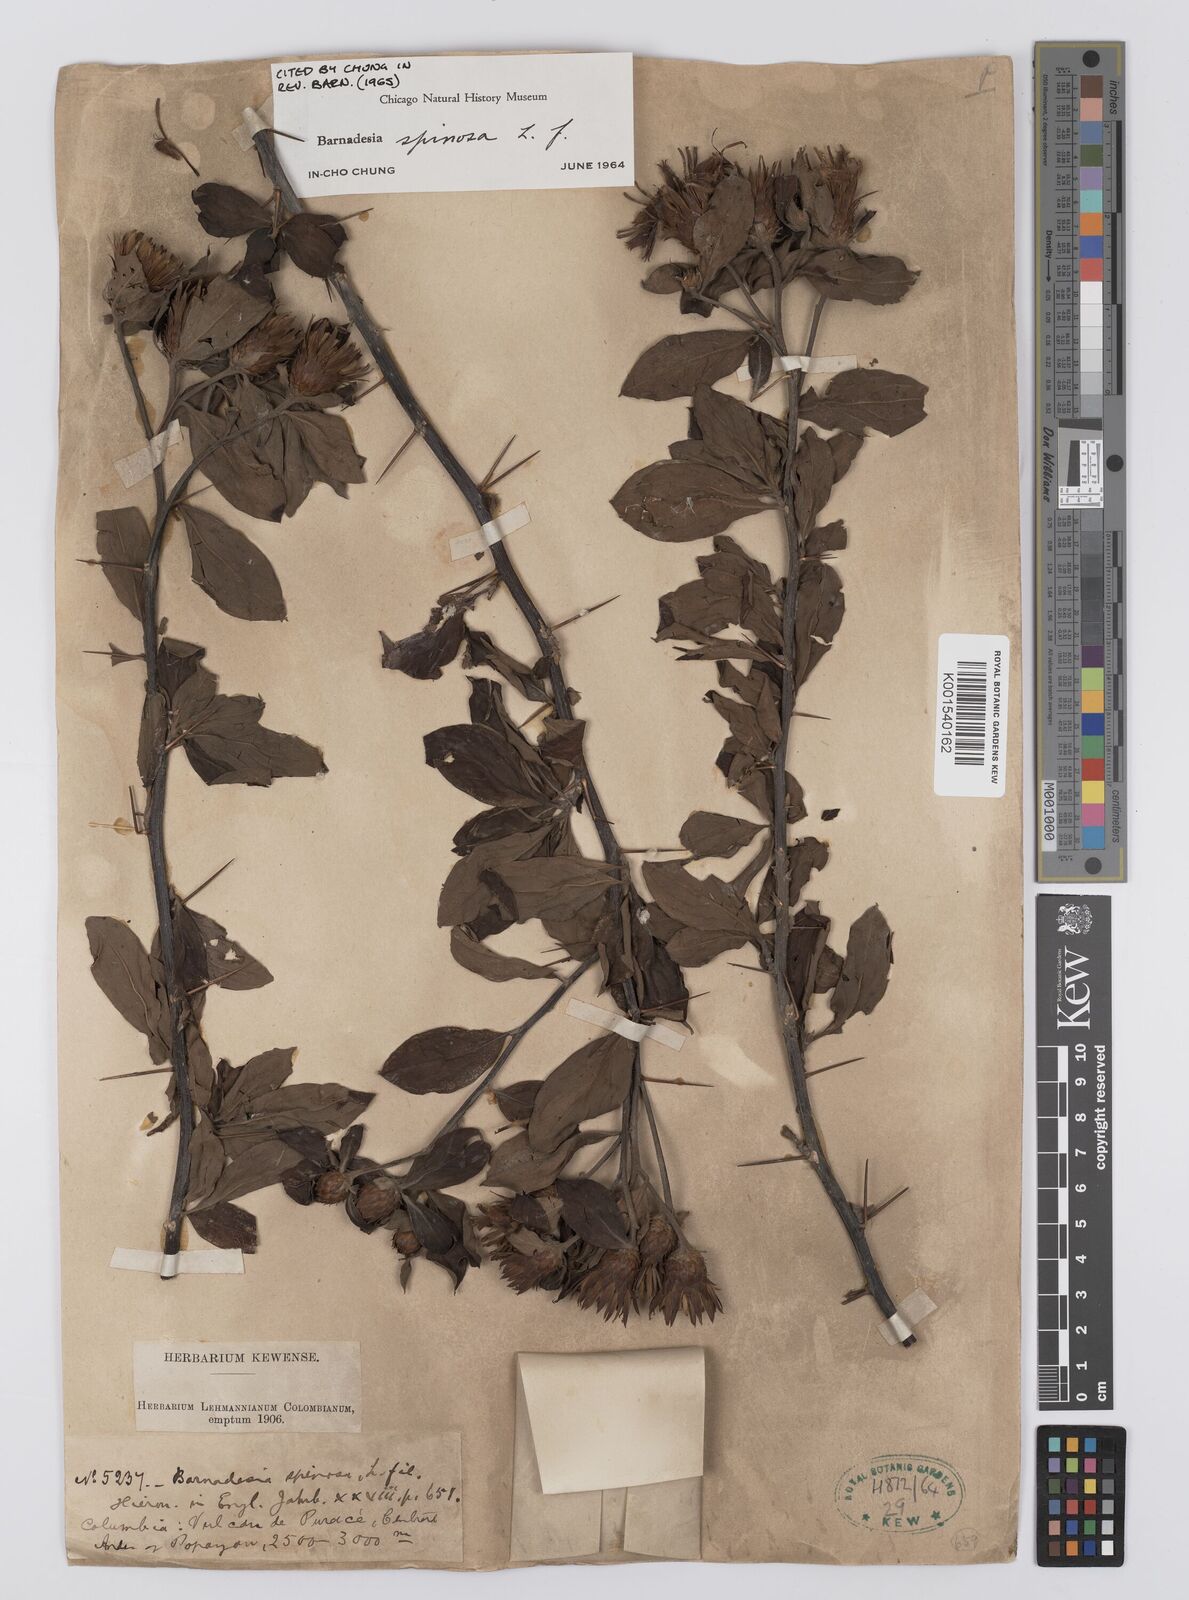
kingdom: Plantae
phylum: Tracheophyta
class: Magnoliopsida
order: Asterales
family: Asteraceae
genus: Barnadesia
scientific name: Barnadesia spinosa
